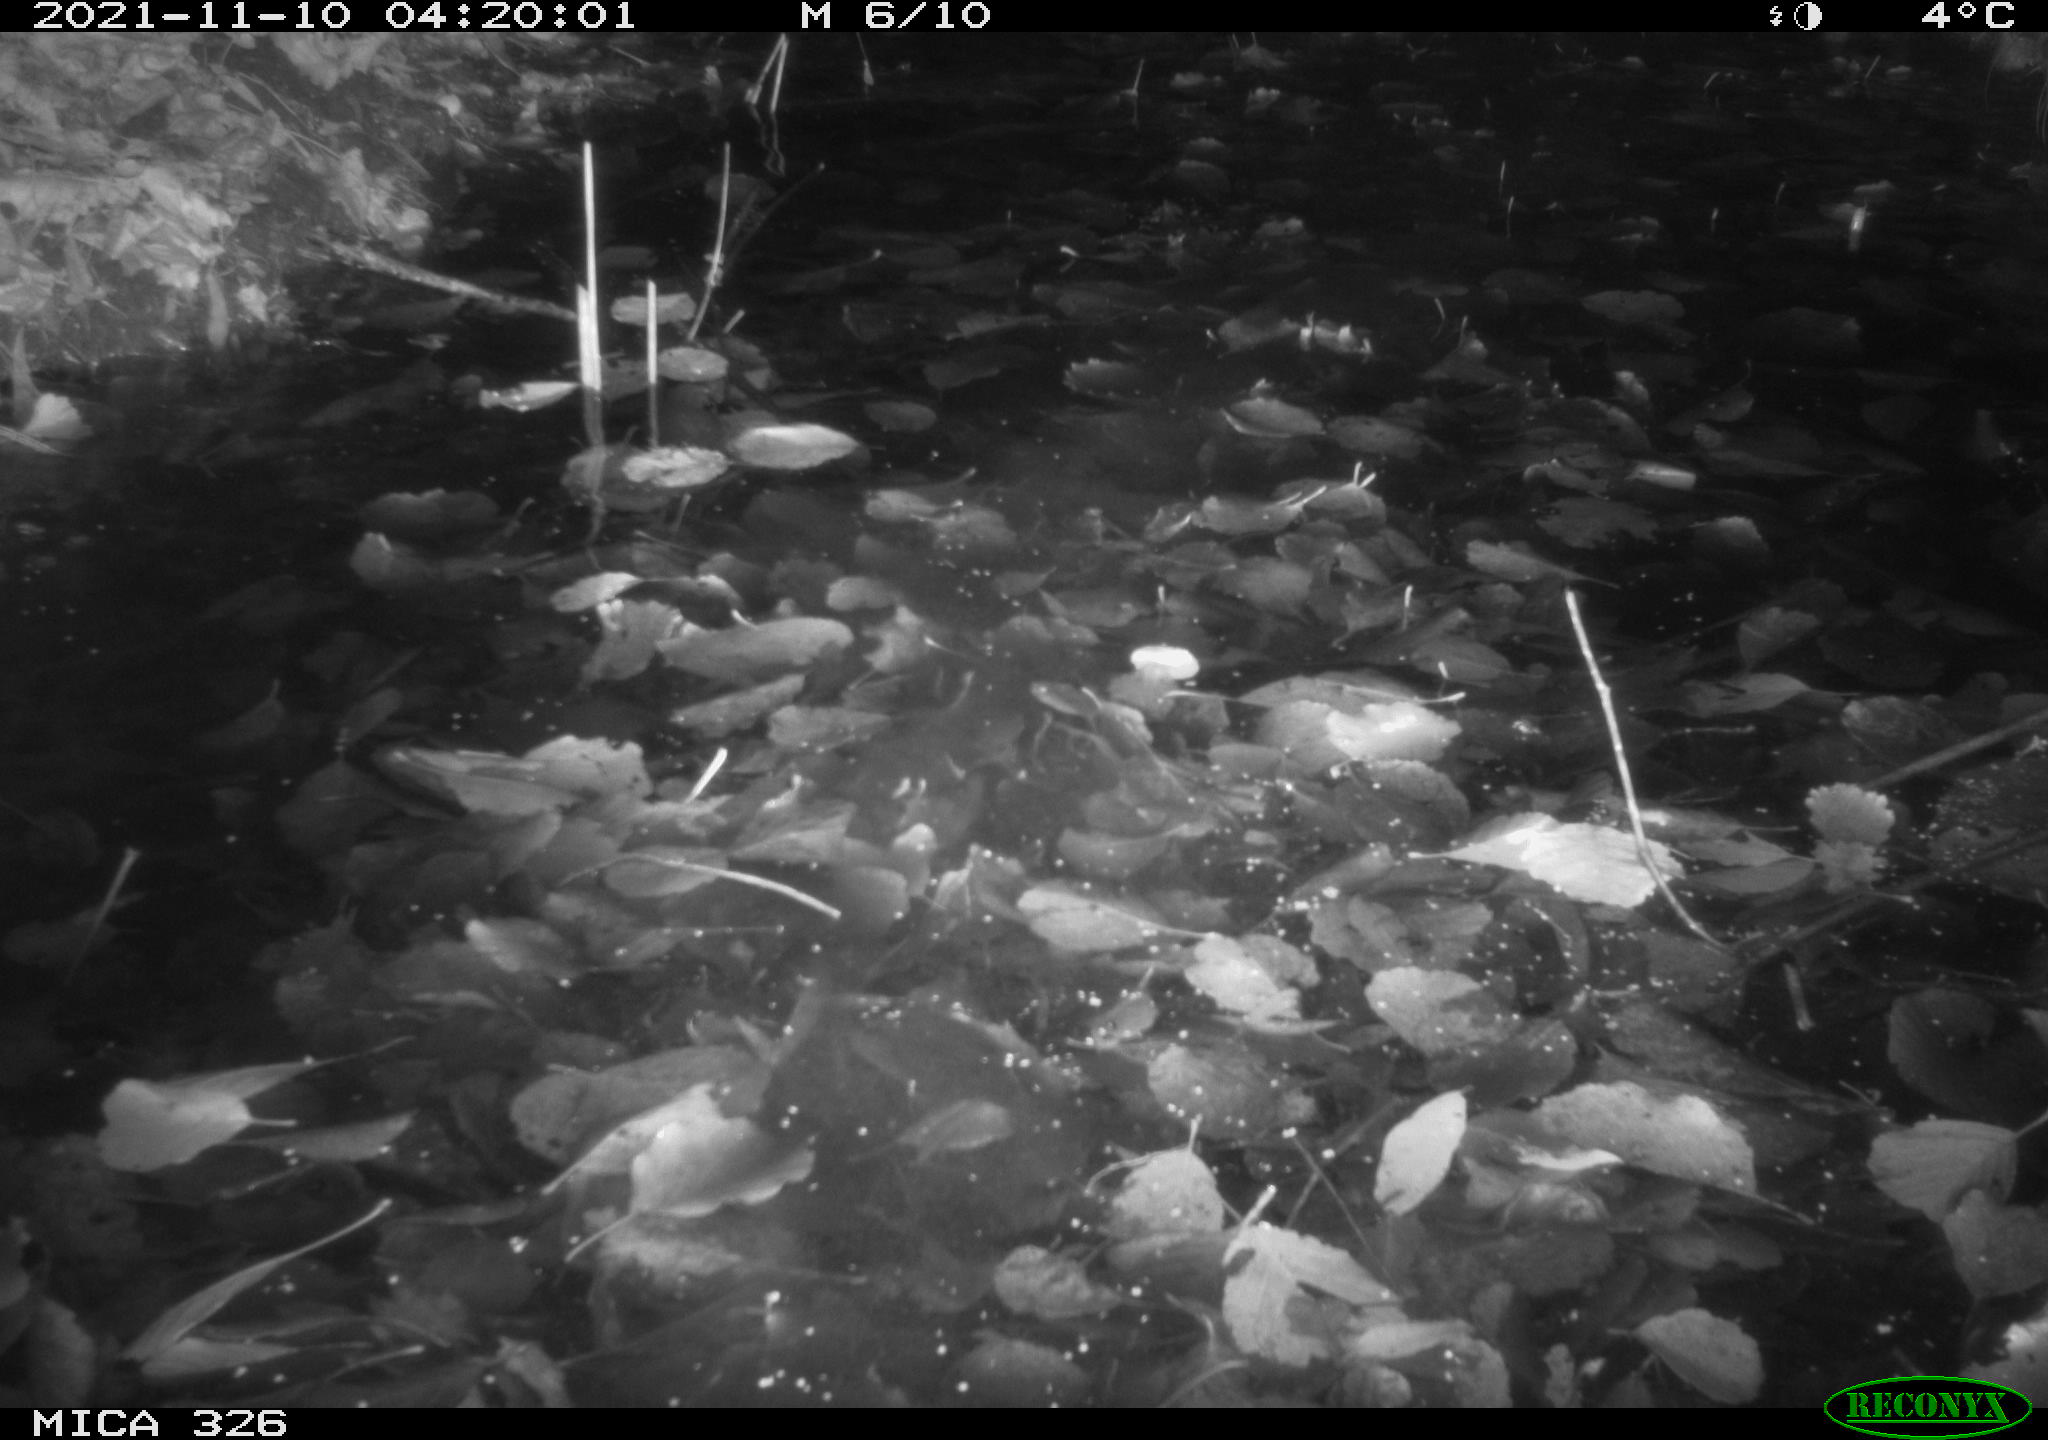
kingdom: Animalia
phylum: Chordata
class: Mammalia
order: Rodentia
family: Myocastoridae
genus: Myocastor
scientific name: Myocastor coypus
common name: Coypu
